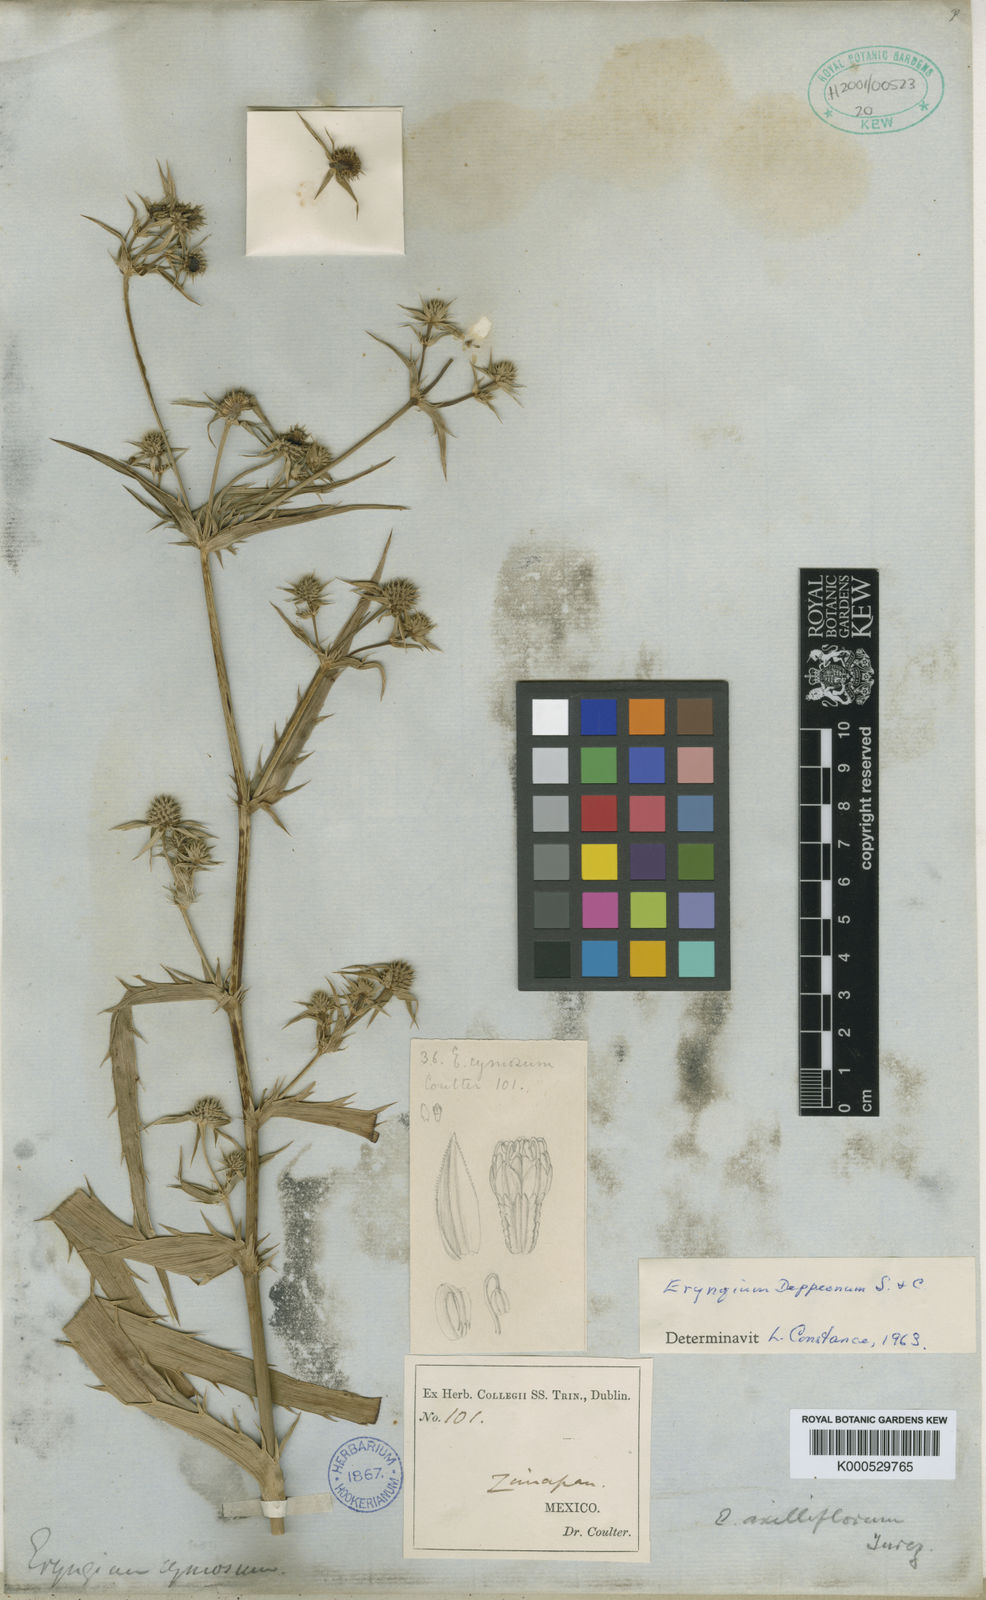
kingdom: Plantae
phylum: Tracheophyta
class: Magnoliopsida
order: Apiales
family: Apiaceae
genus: Eryngium
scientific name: Eryngium monocephalum
